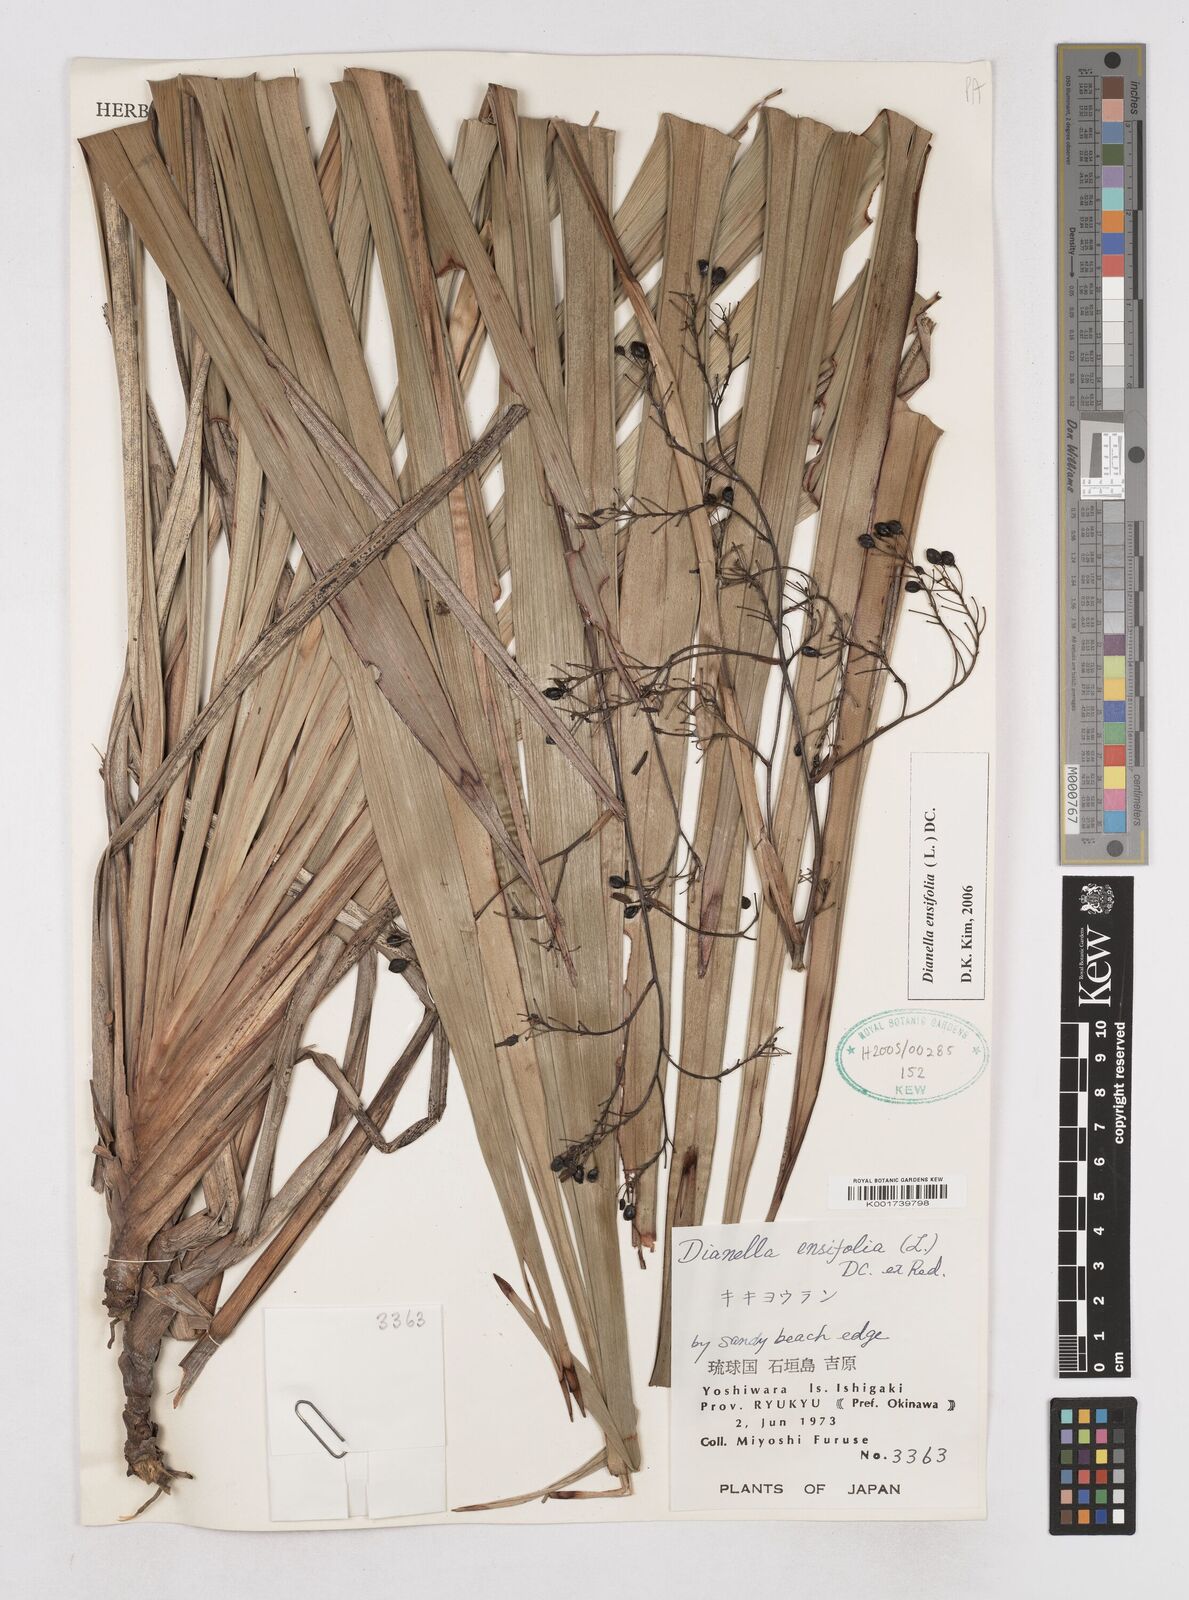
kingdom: Plantae
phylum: Tracheophyta
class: Liliopsida
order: Asparagales
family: Asphodelaceae
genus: Dianella
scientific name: Dianella ensifolia
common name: New zealand lilyplant
